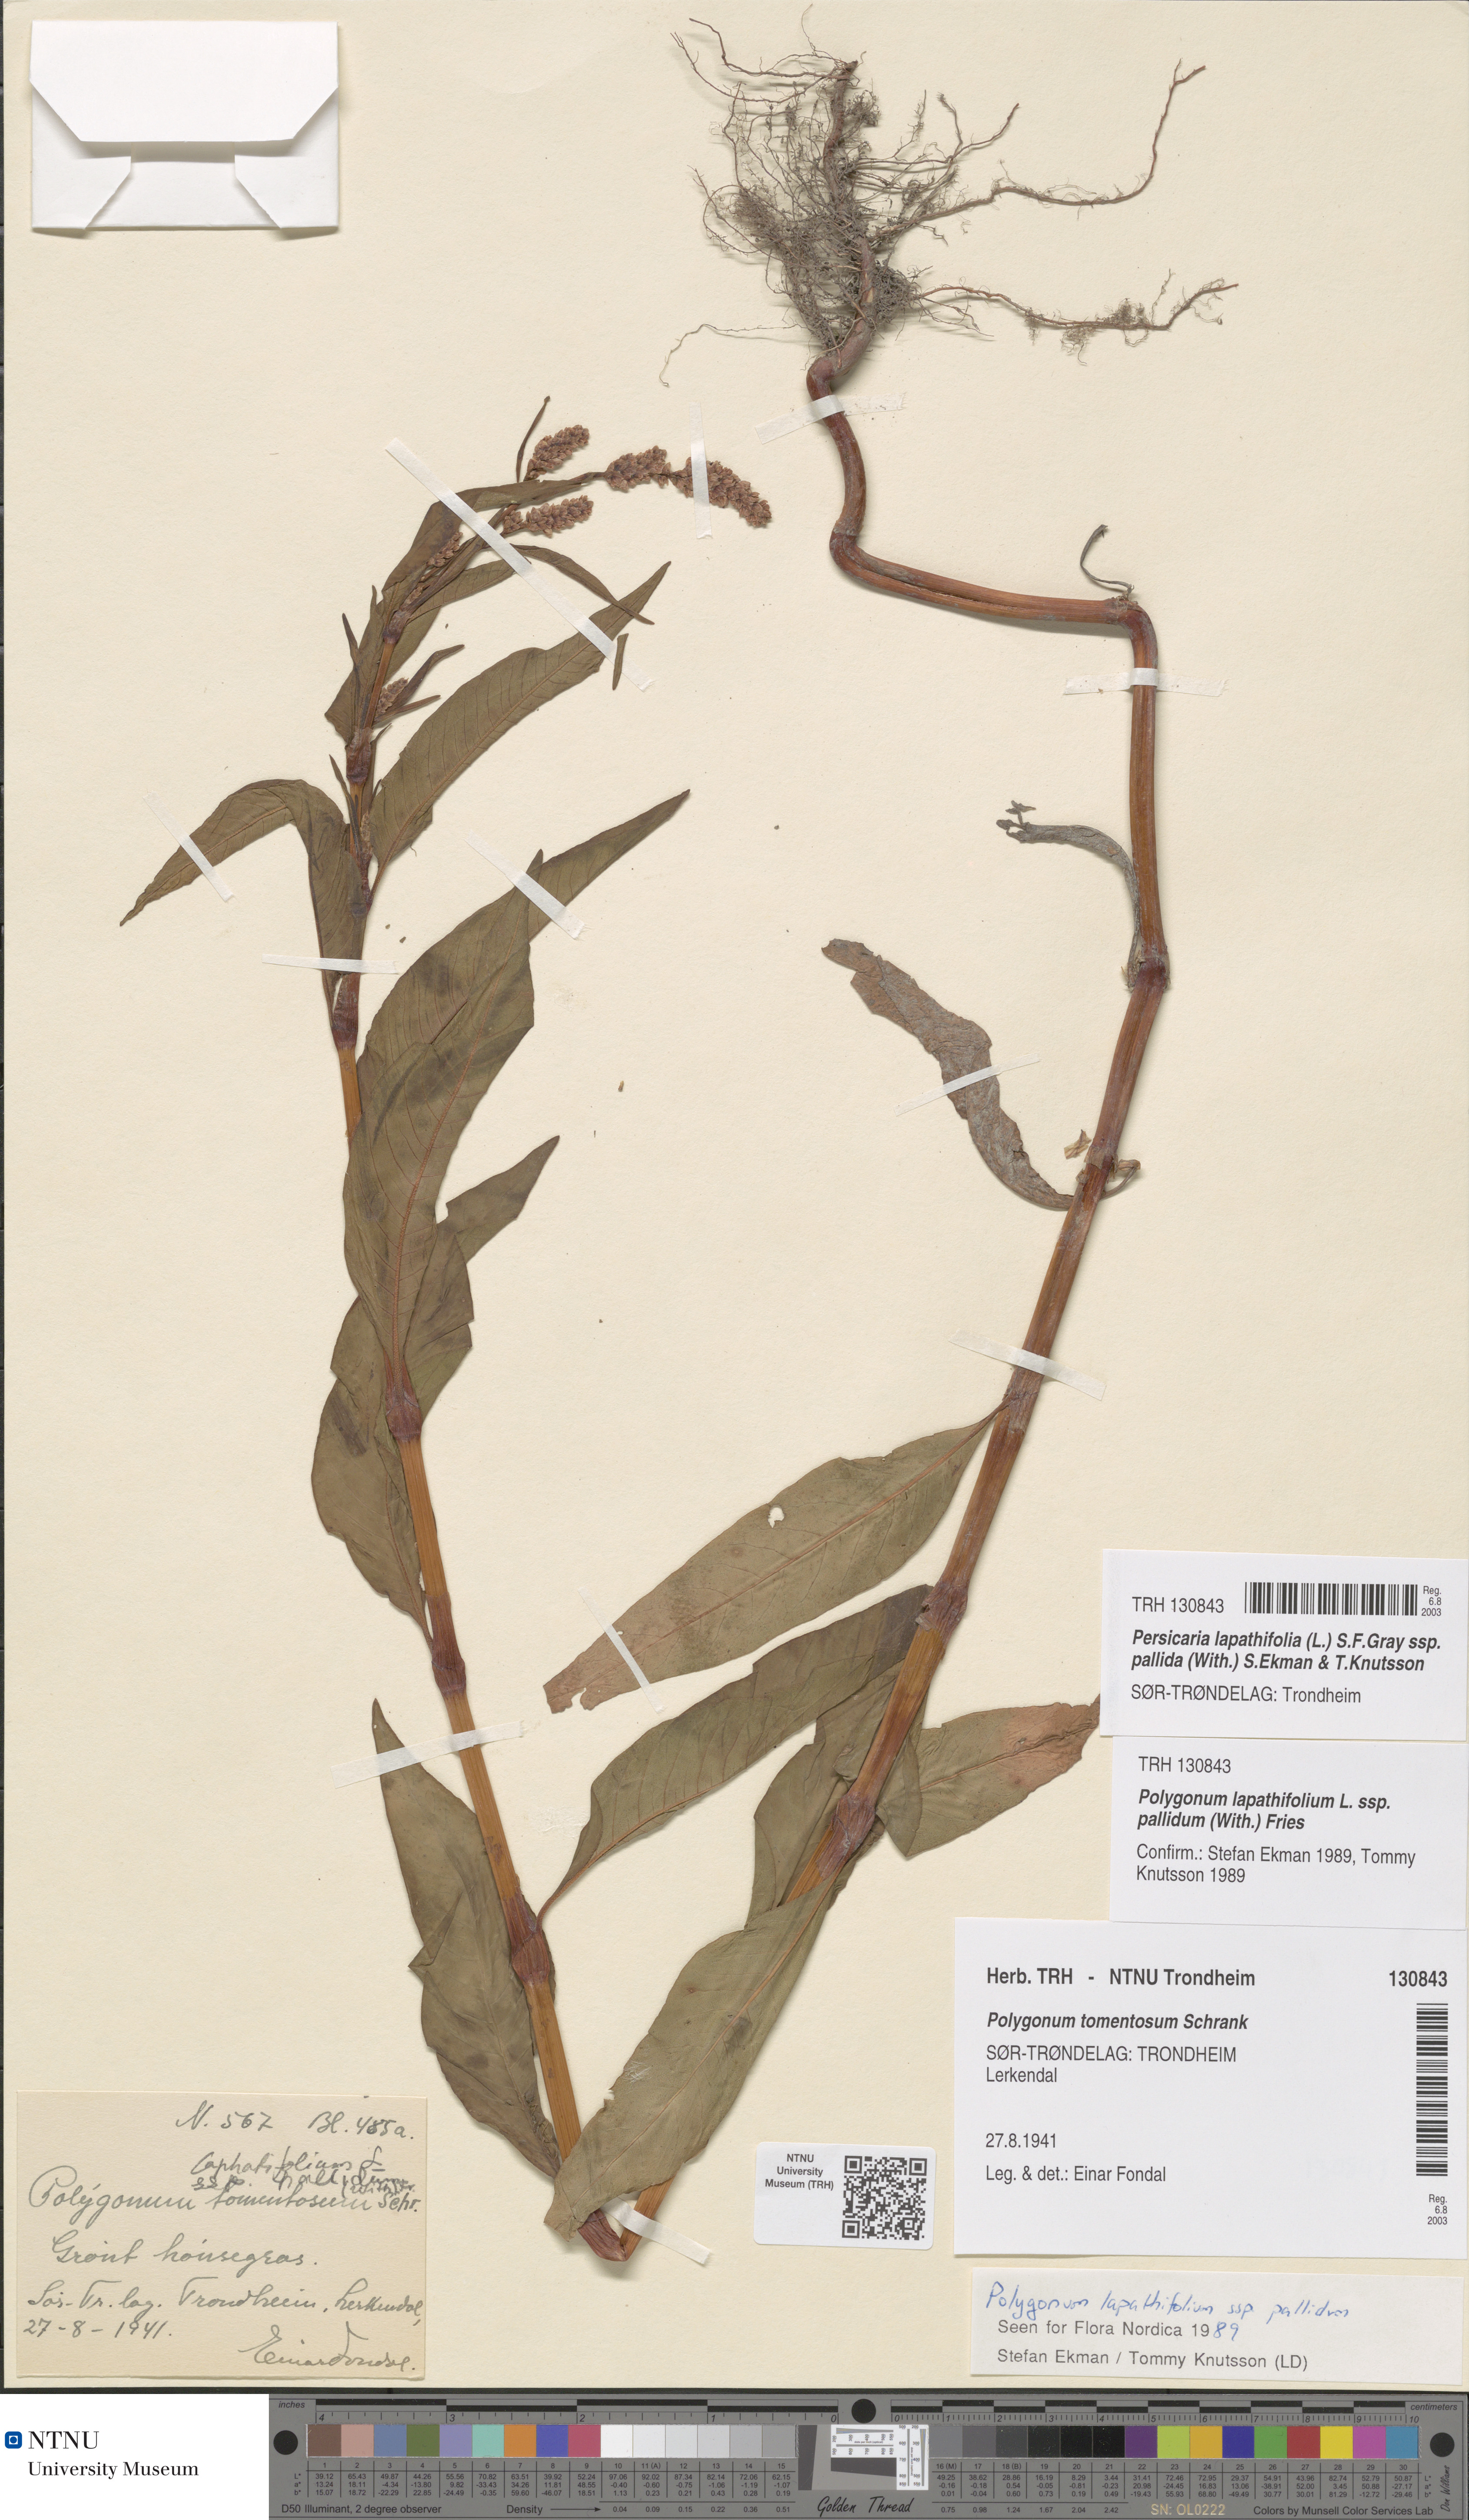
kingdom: Plantae
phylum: Tracheophyta
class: Magnoliopsida
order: Caryophyllales
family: Polygonaceae
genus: Persicaria
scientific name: Persicaria lapathifolia
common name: Curlytop knotweed
